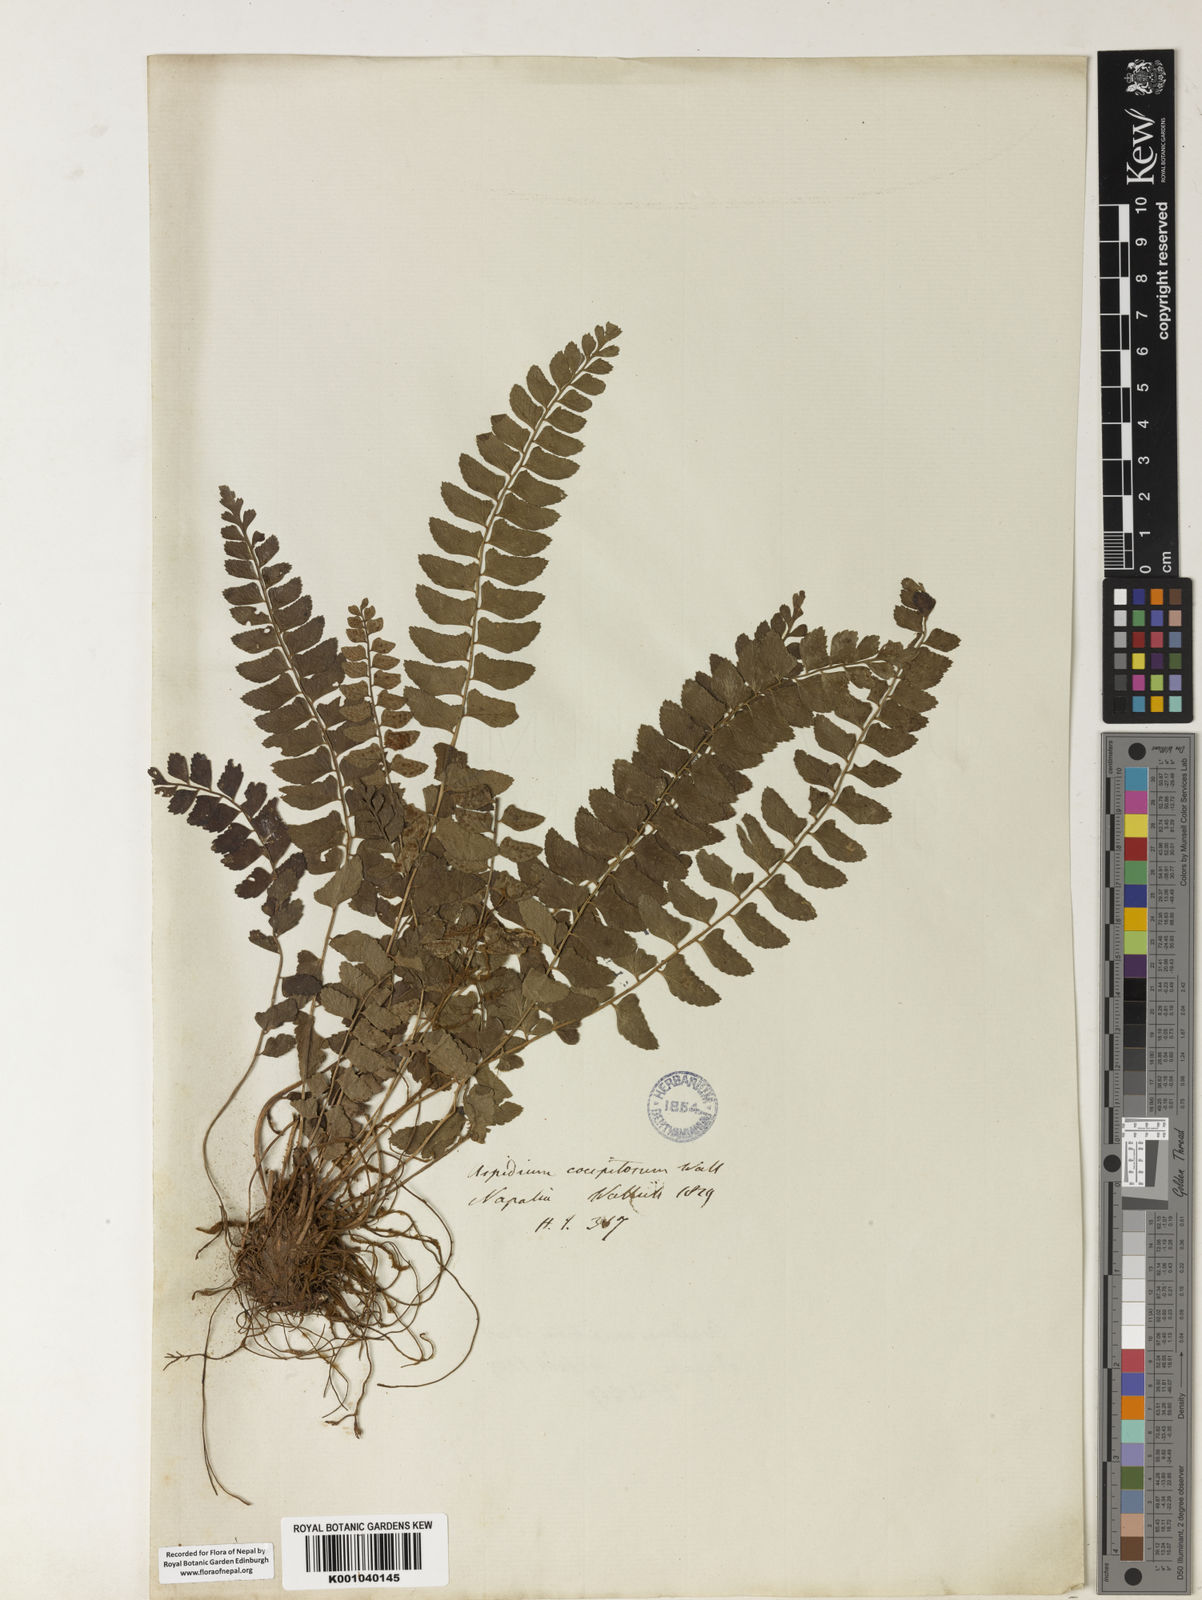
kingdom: Plantae
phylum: Tracheophyta
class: Polypodiopsida
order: Polypodiales
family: Dryopteridaceae
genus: Polystichum
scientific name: Polystichum obliquum
